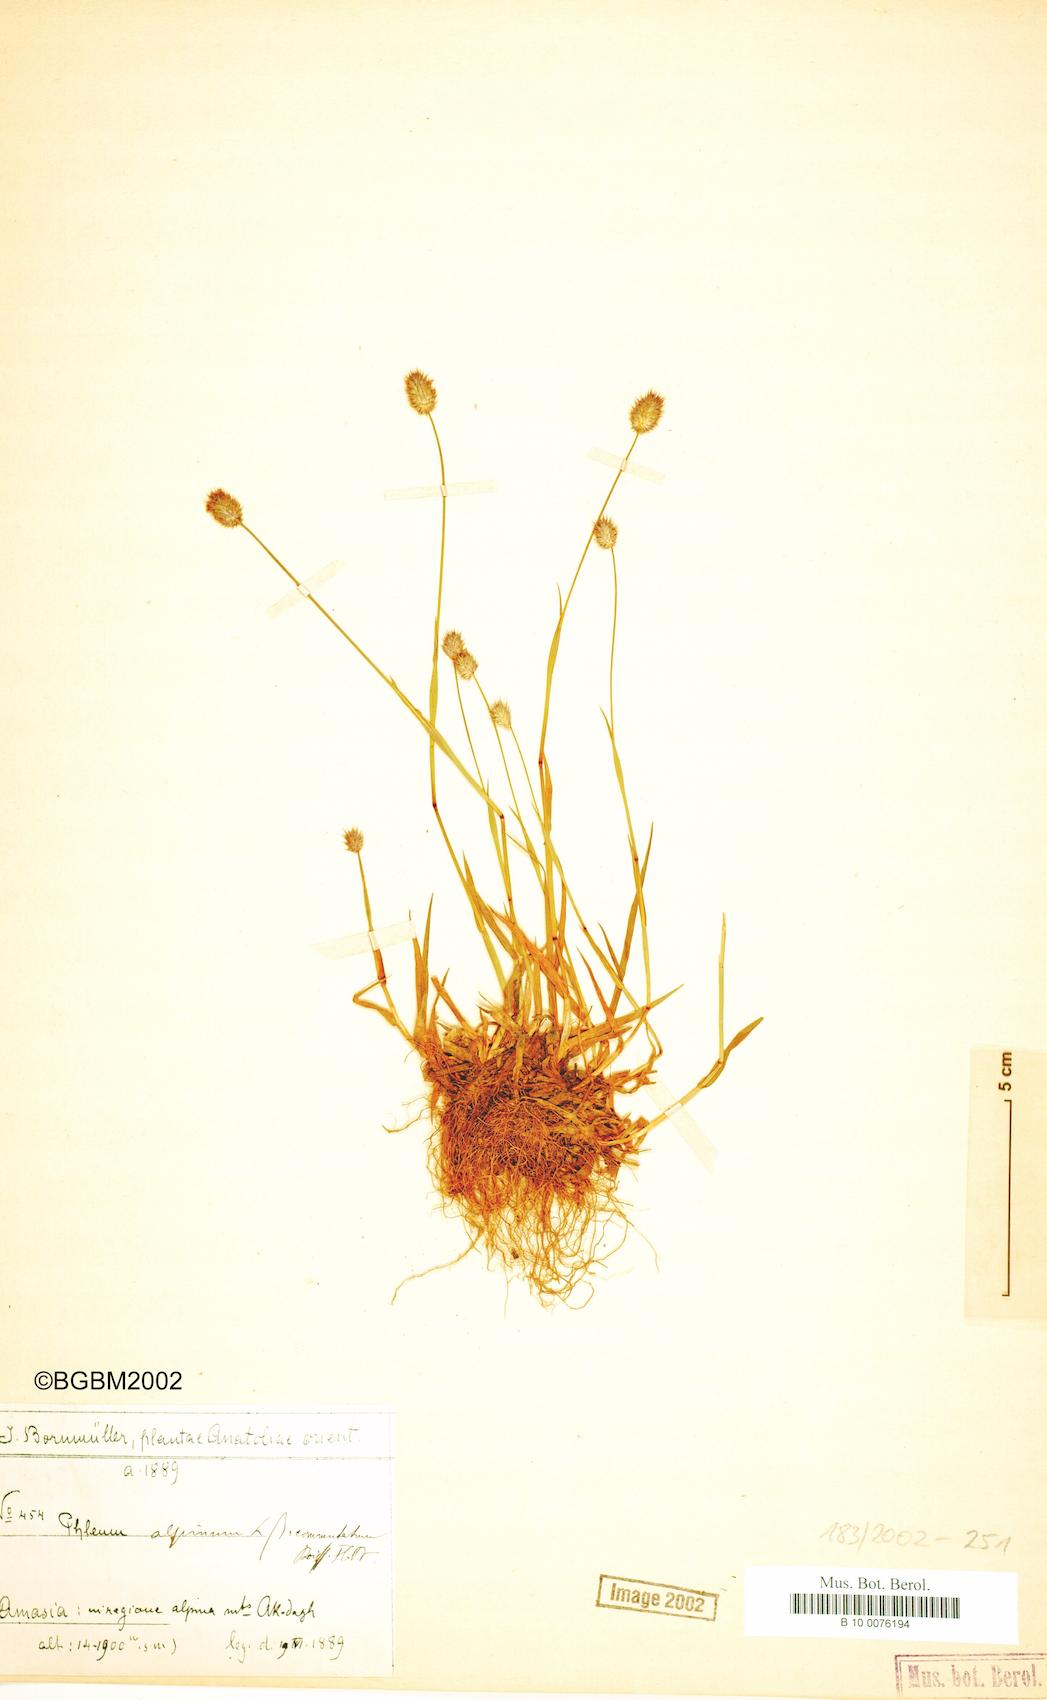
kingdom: Plantae
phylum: Tracheophyta
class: Liliopsida
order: Poales
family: Poaceae
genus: Phleum
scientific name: Phleum alpinum
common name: Alpine cat's-tail
